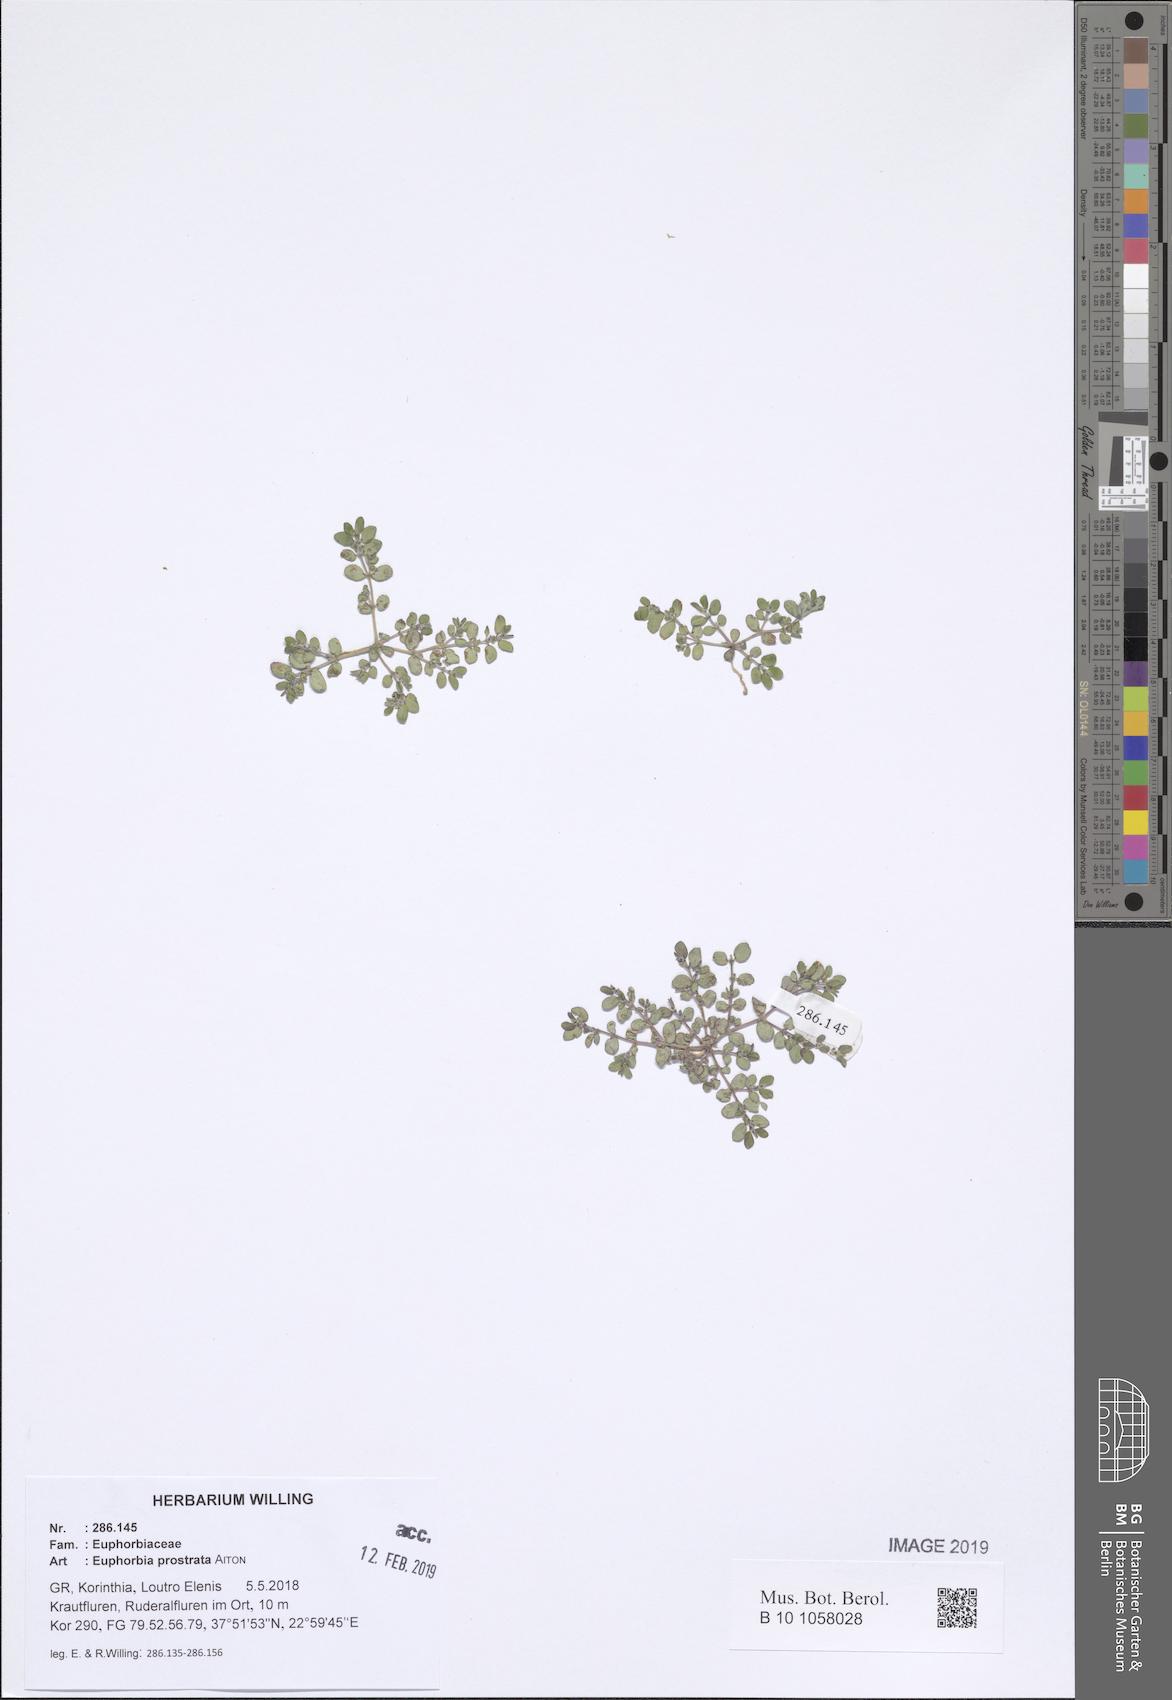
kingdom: Plantae
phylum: Tracheophyta
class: Magnoliopsida
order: Malpighiales
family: Euphorbiaceae
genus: Euphorbia
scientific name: Euphorbia prostrata
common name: Prostrate sandmat
